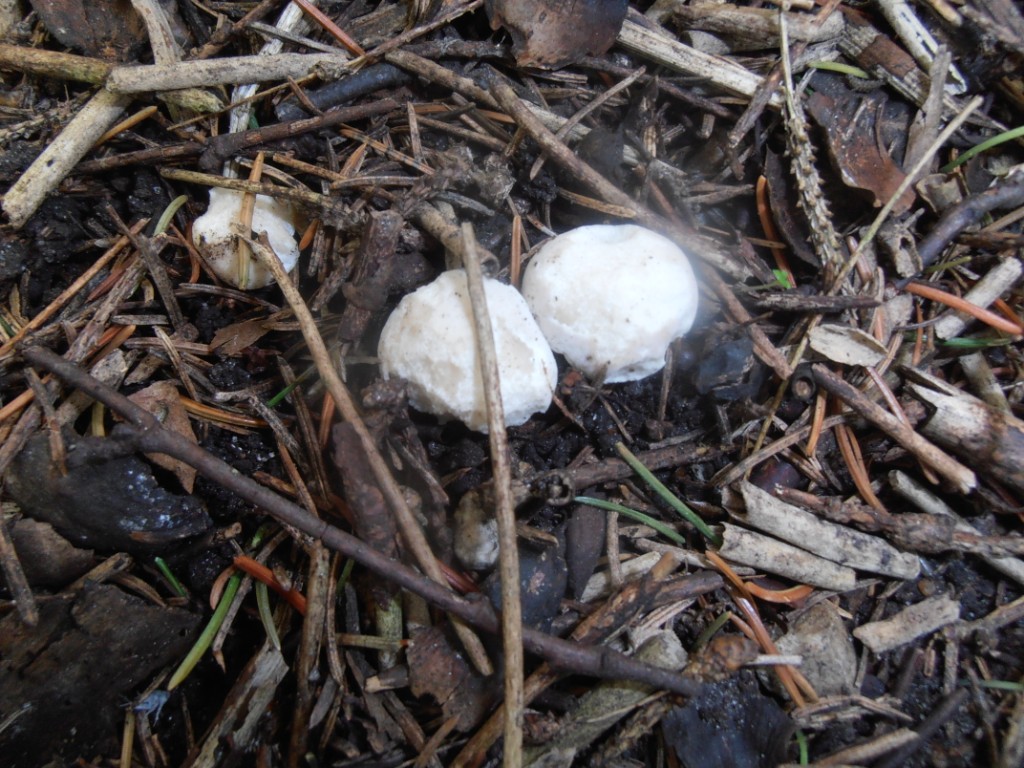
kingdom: Fungi
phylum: Basidiomycota
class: Agaricomycetes
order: Agaricales
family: Lyophyllaceae
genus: Calocybe
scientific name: Calocybe gambosa
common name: vårmusseron
